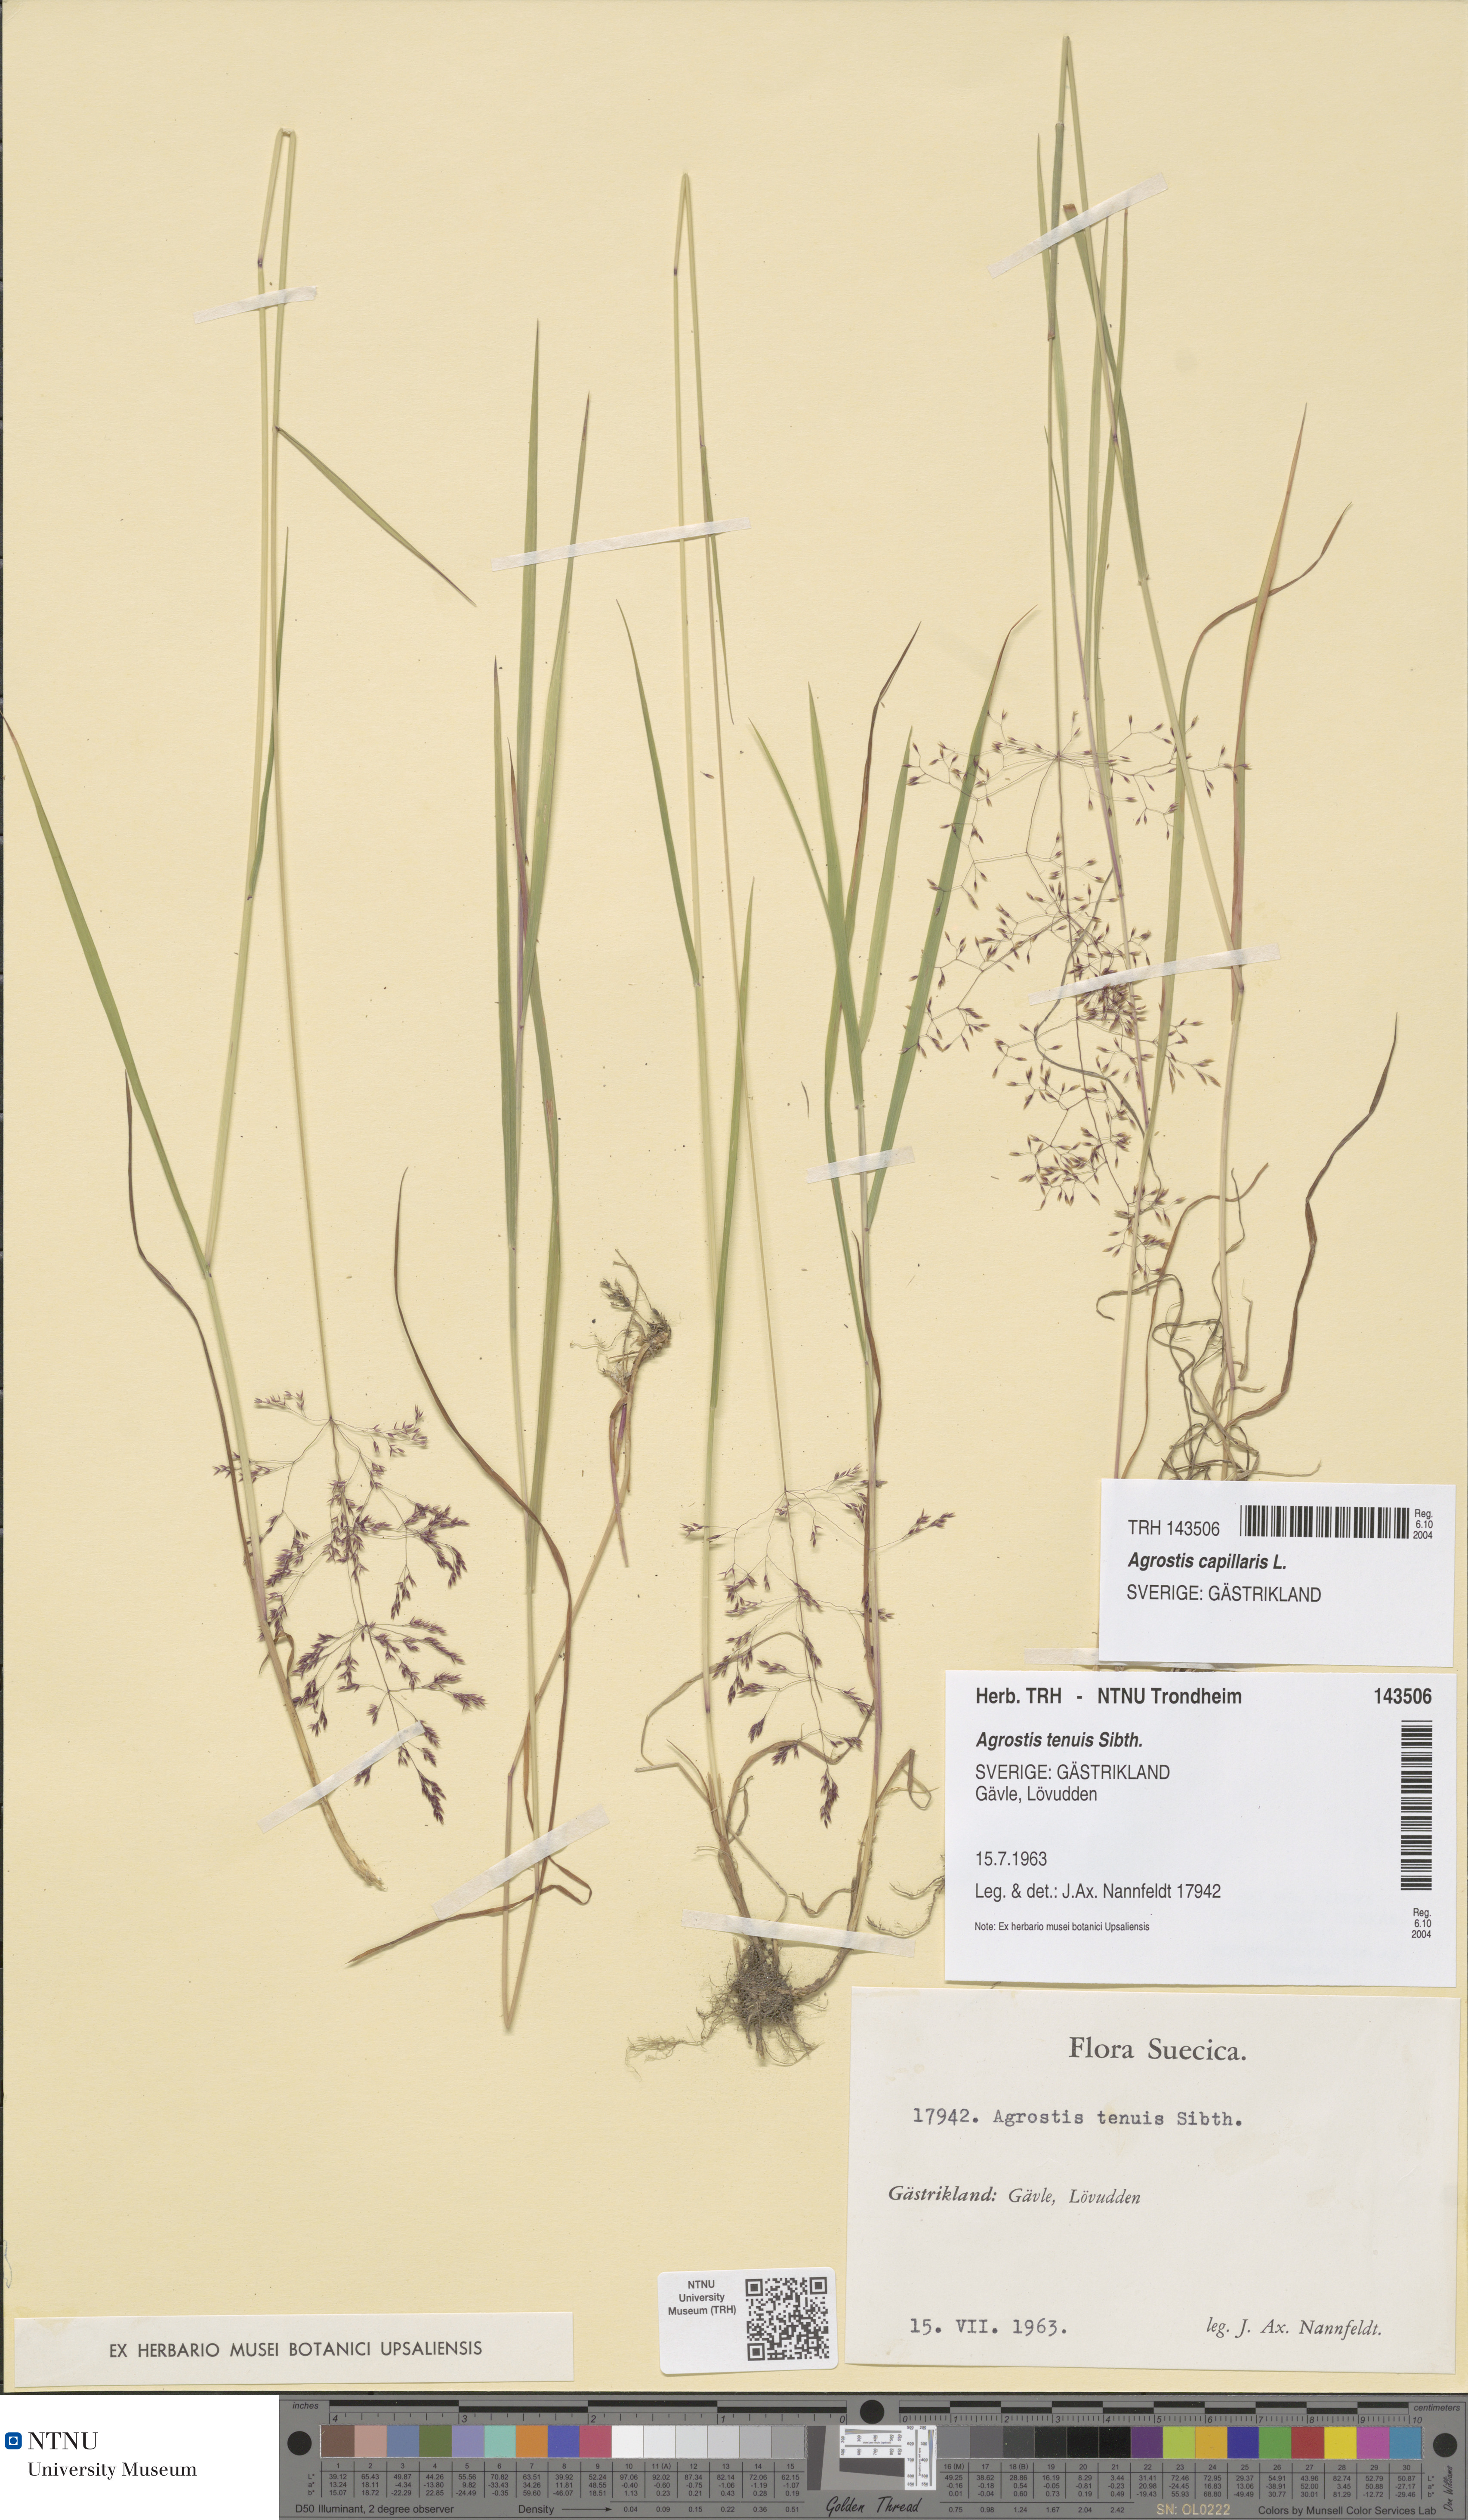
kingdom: Plantae
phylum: Tracheophyta
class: Liliopsida
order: Poales
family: Poaceae
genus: Agrostis
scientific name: Agrostis capillaris
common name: Colonial bentgrass
